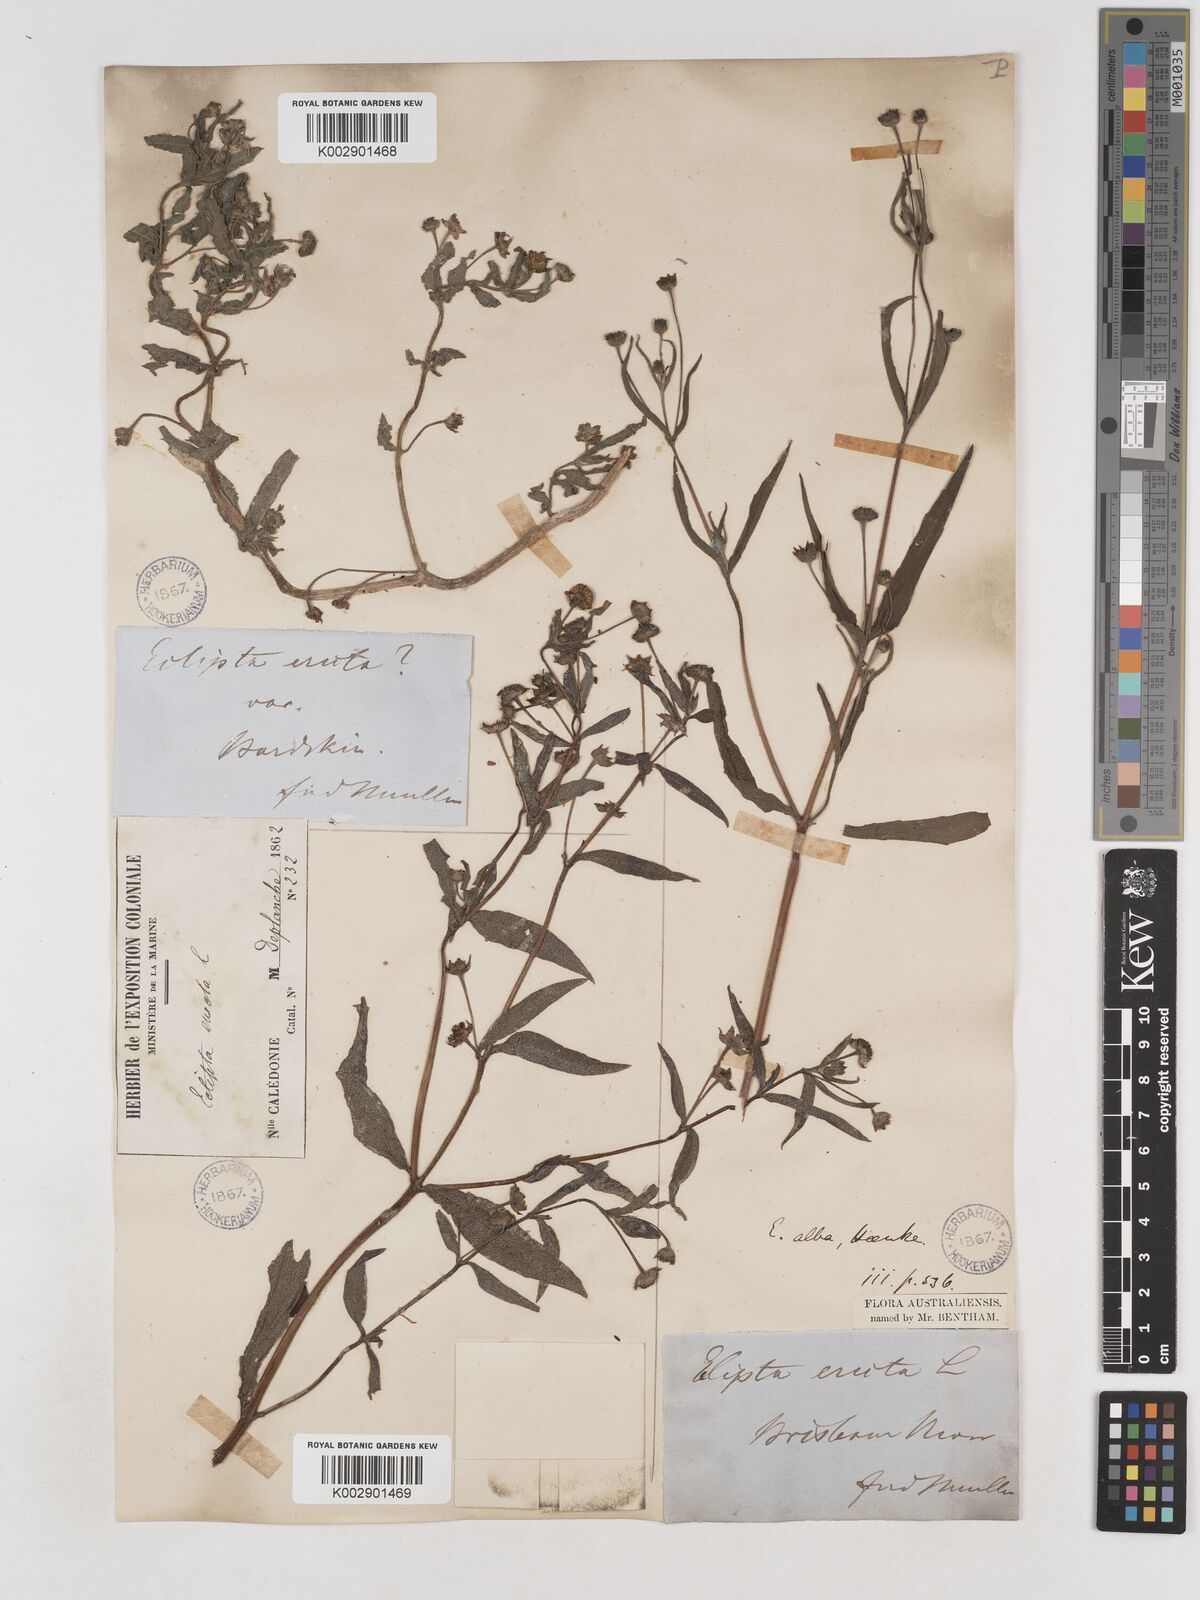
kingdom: Plantae
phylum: Tracheophyta
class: Magnoliopsida
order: Asterales
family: Asteraceae
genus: Eclipta
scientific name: Eclipta alba
